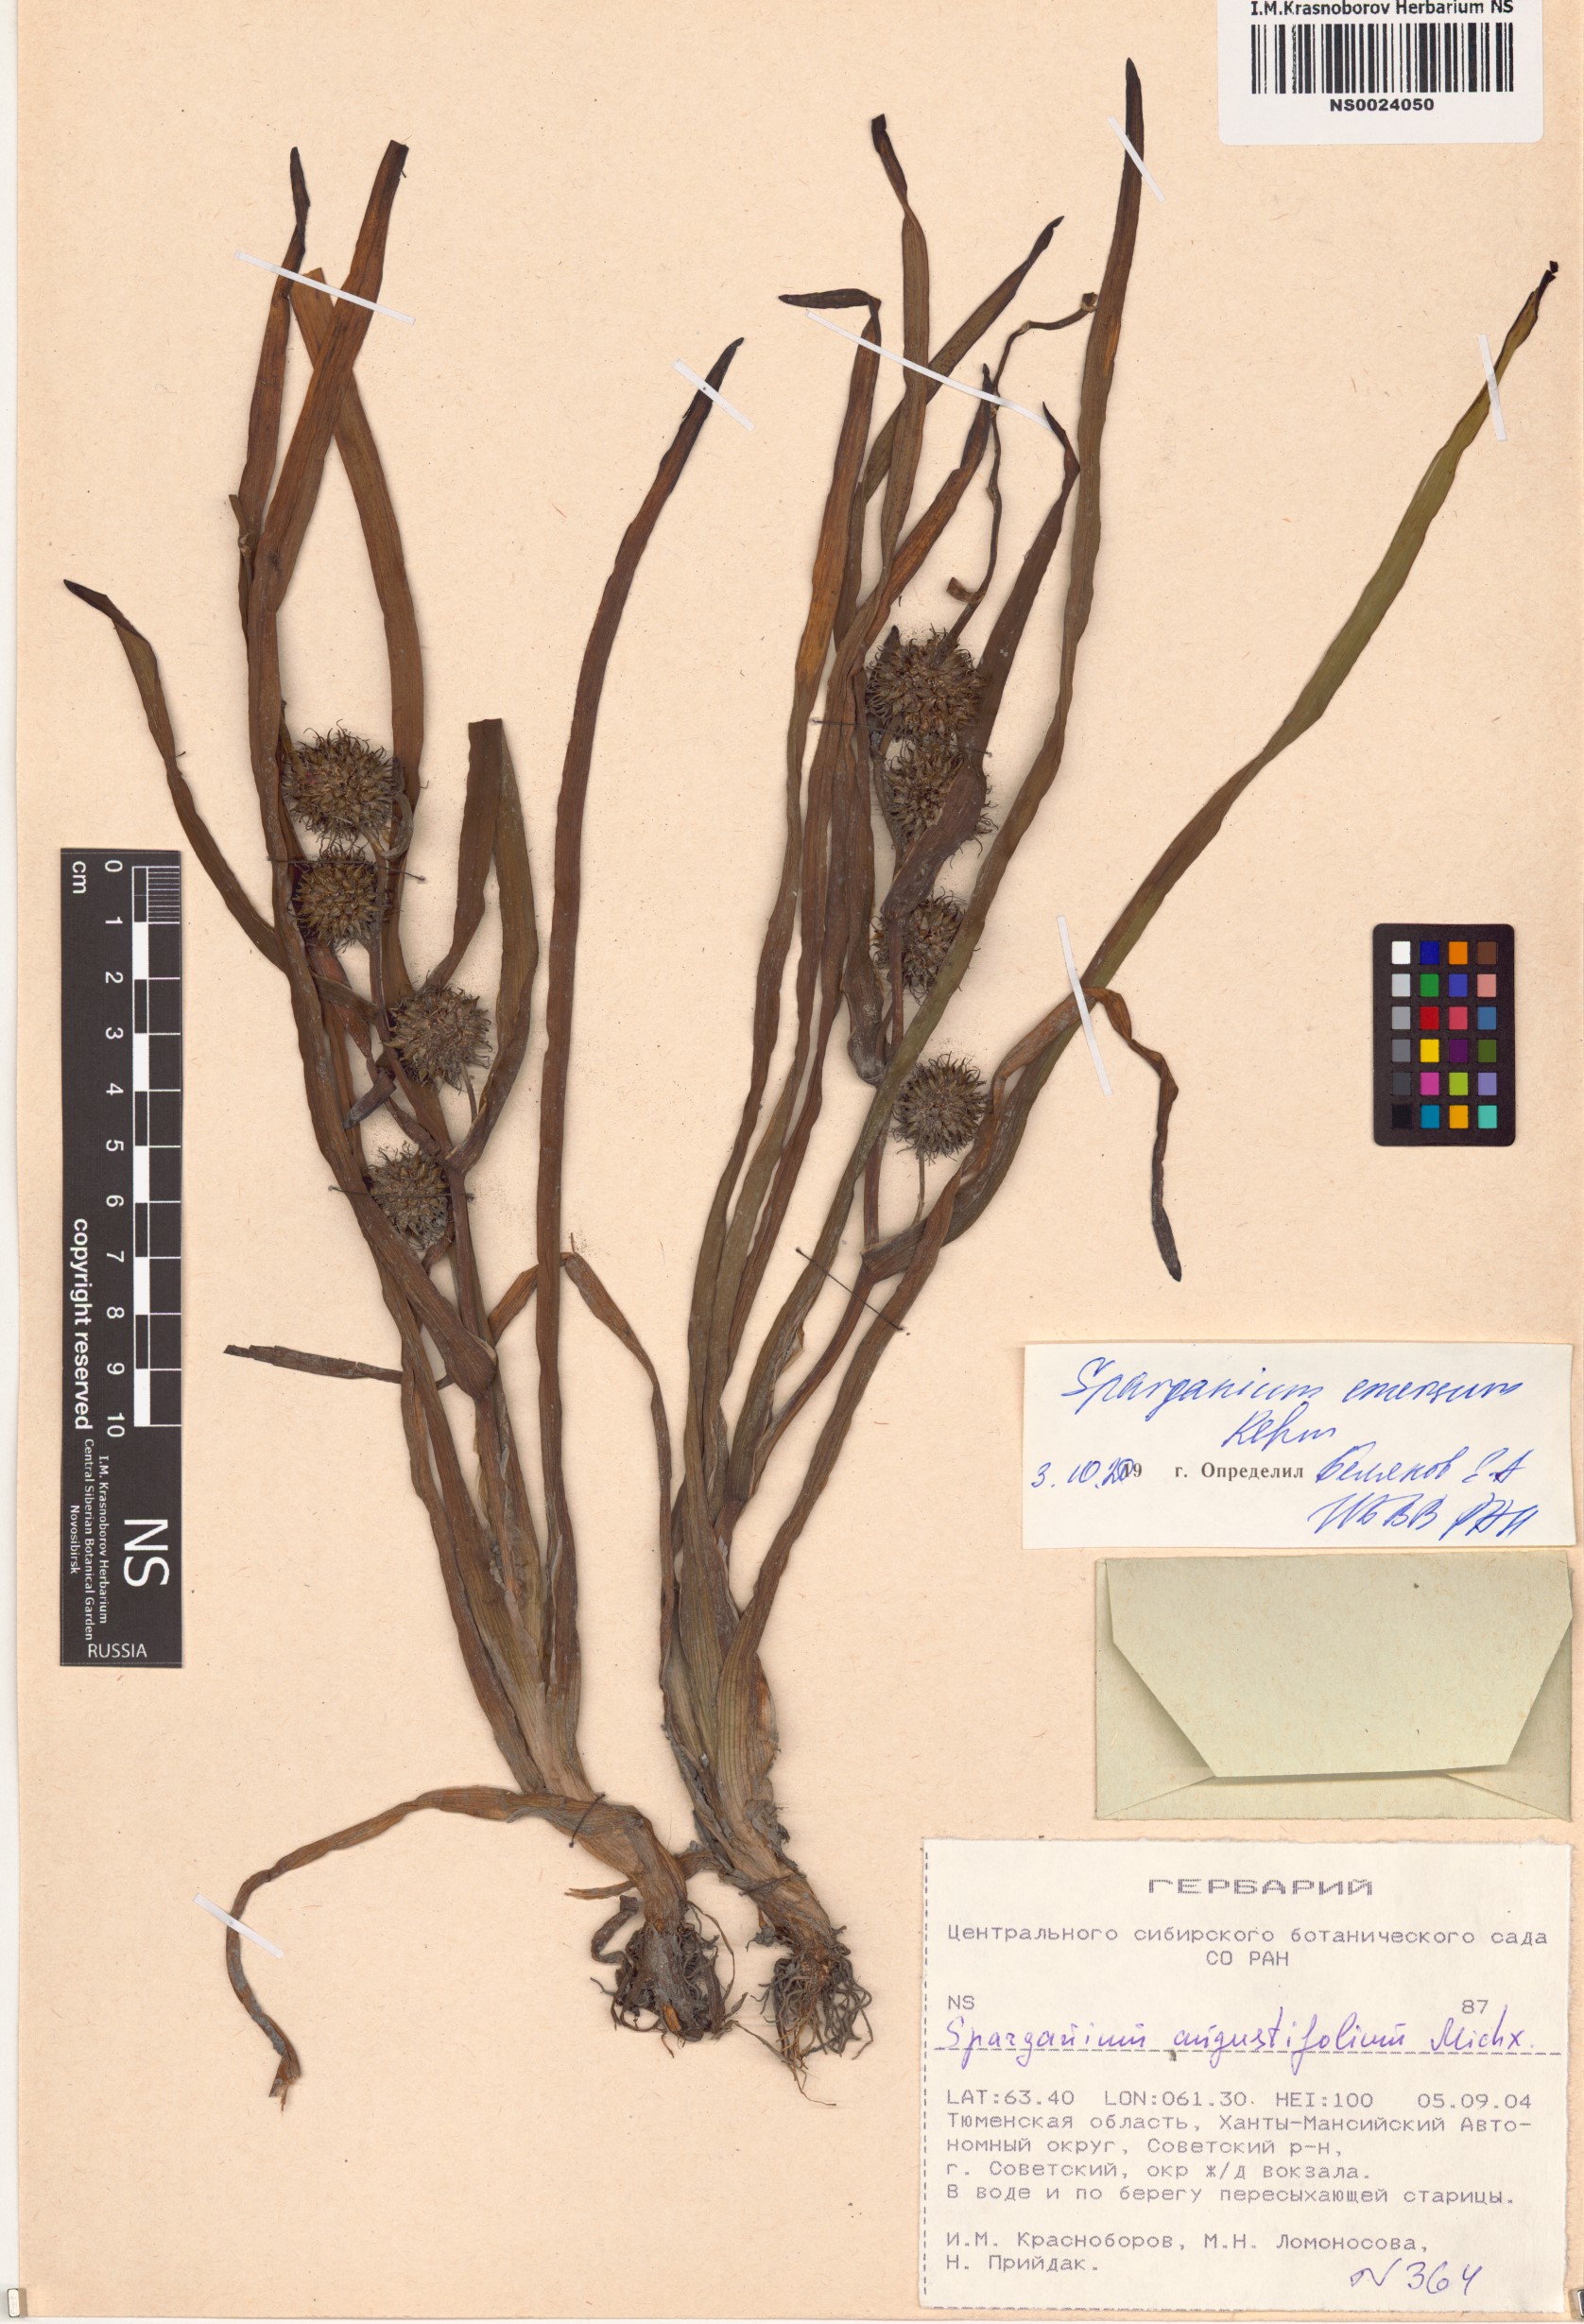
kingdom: Plantae
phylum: Tracheophyta
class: Liliopsida
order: Poales
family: Typhaceae
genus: Sparganium
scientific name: Sparganium emersum
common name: Unbranched bur-reed
